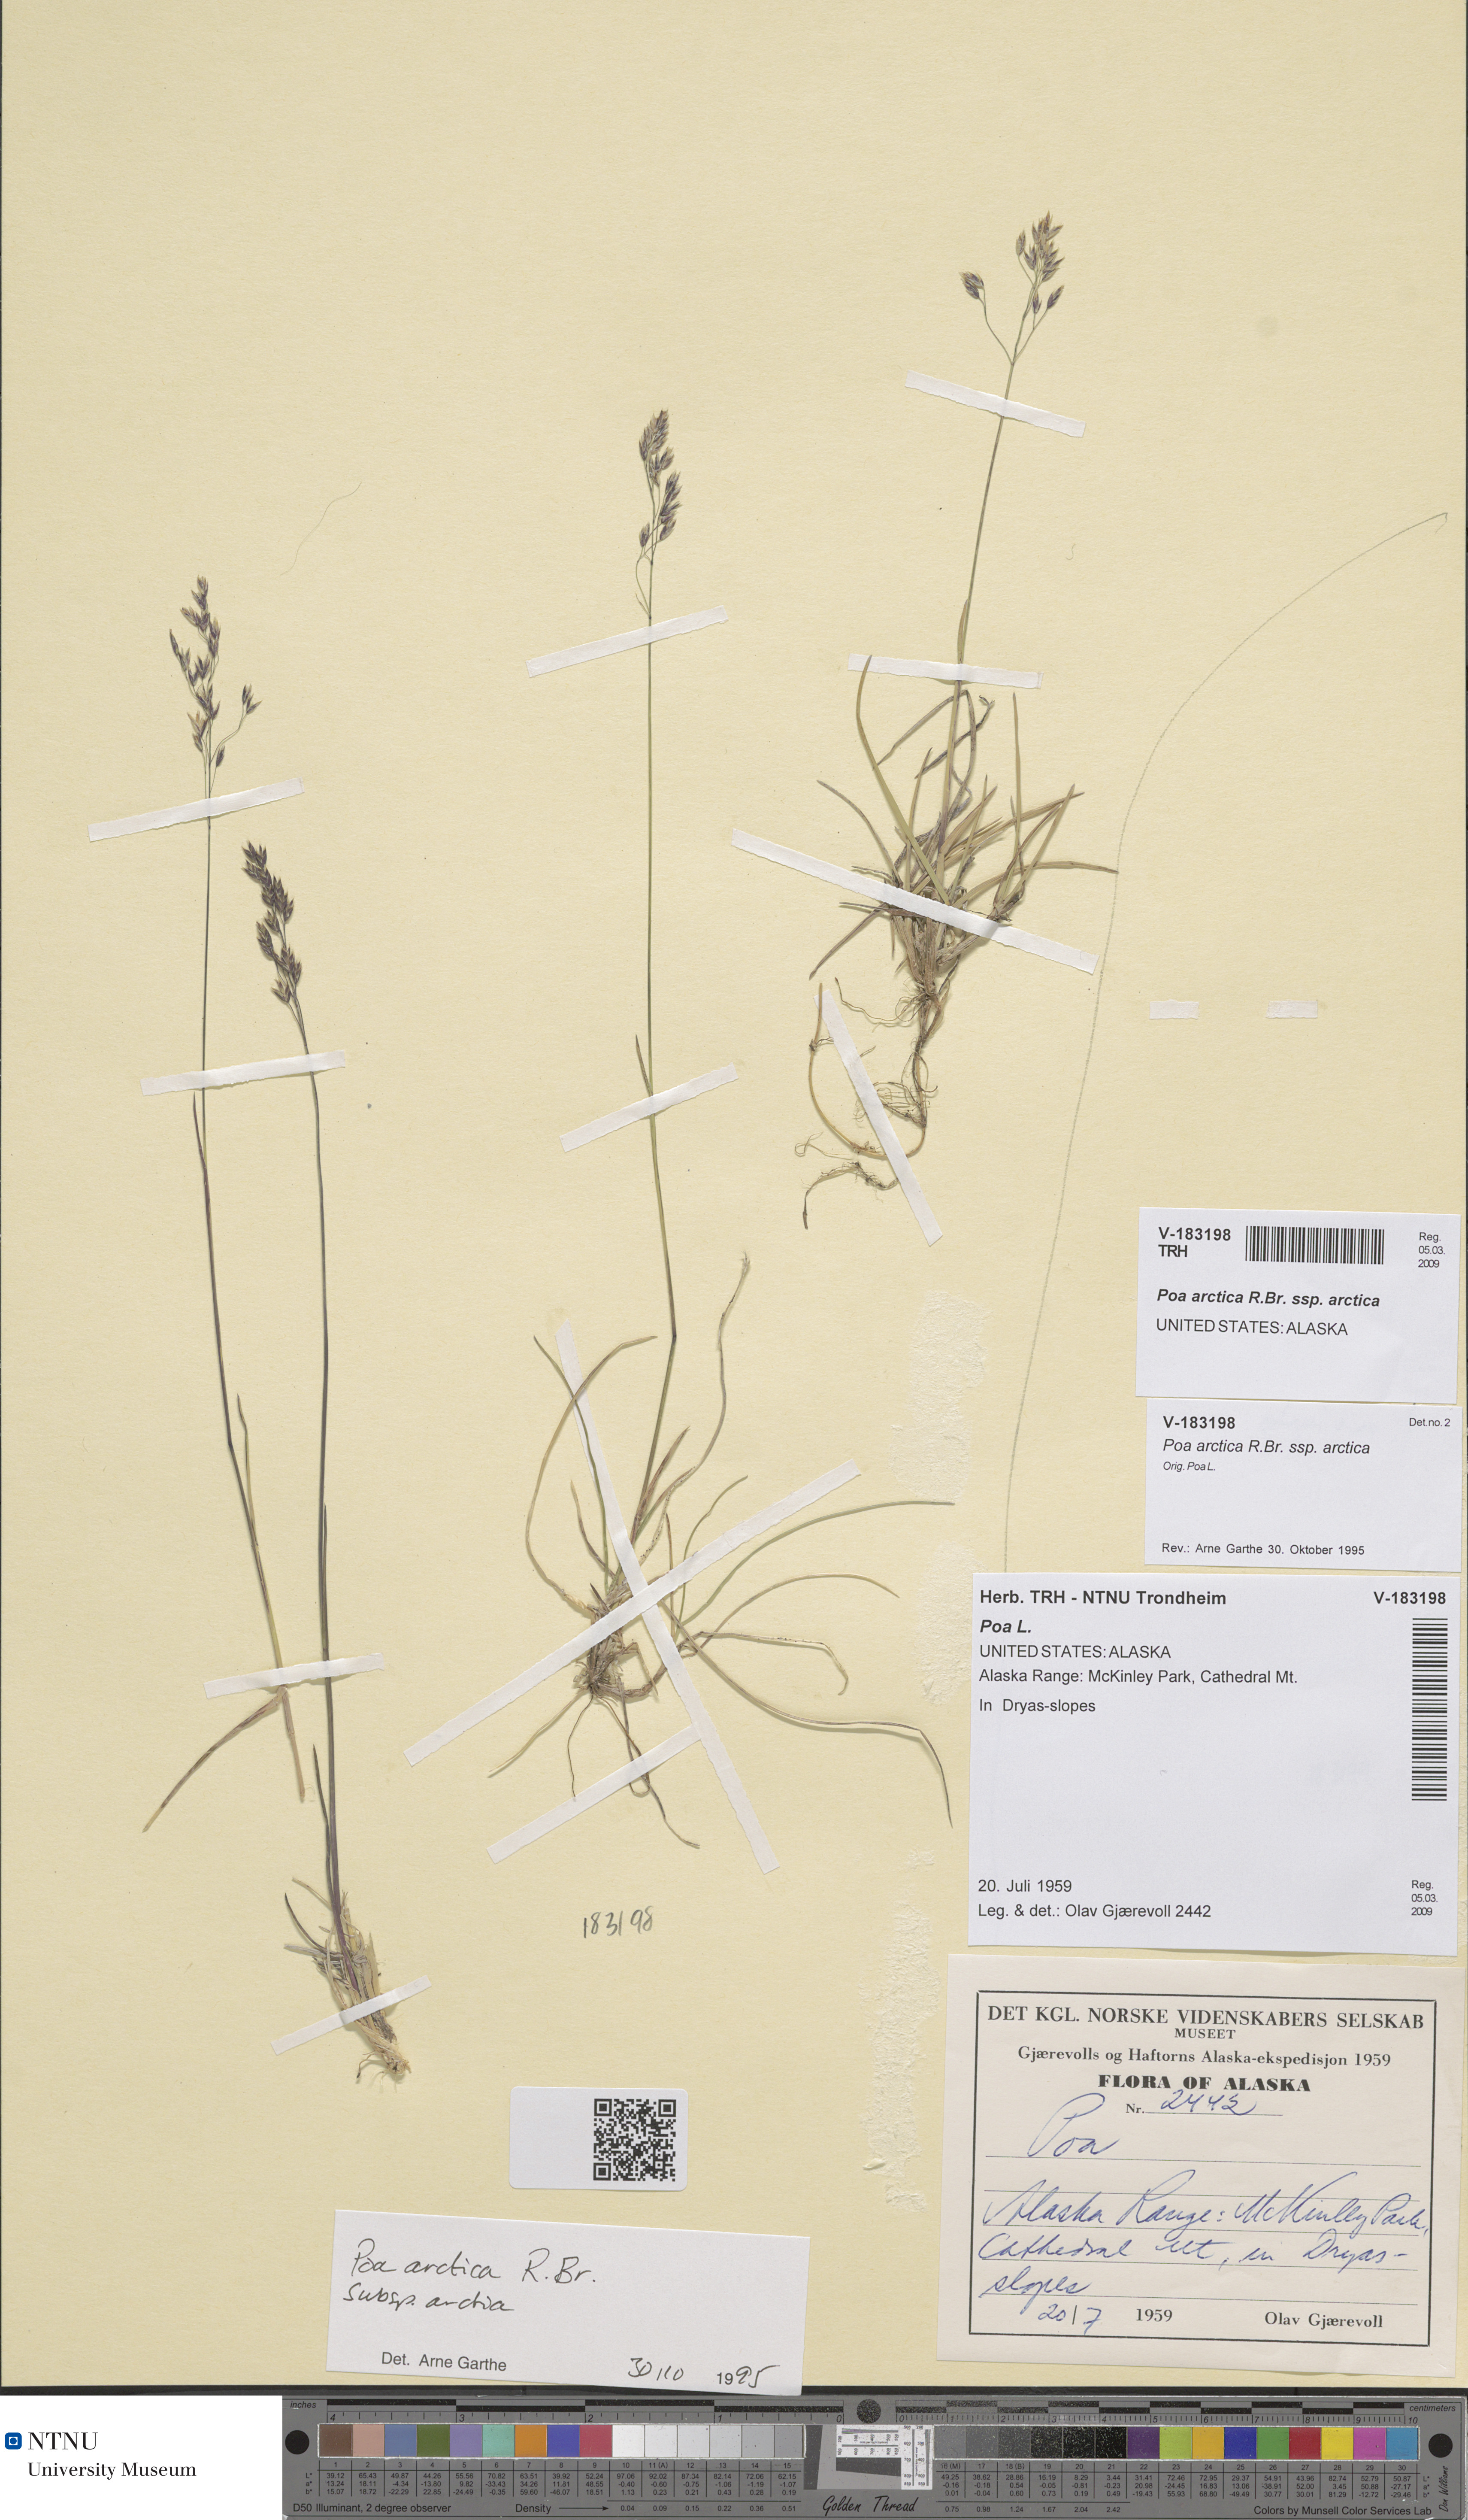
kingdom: Plantae
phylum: Tracheophyta
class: Liliopsida
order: Poales
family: Poaceae
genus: Poa
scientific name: Poa arctica
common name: Arctic bluegrass
